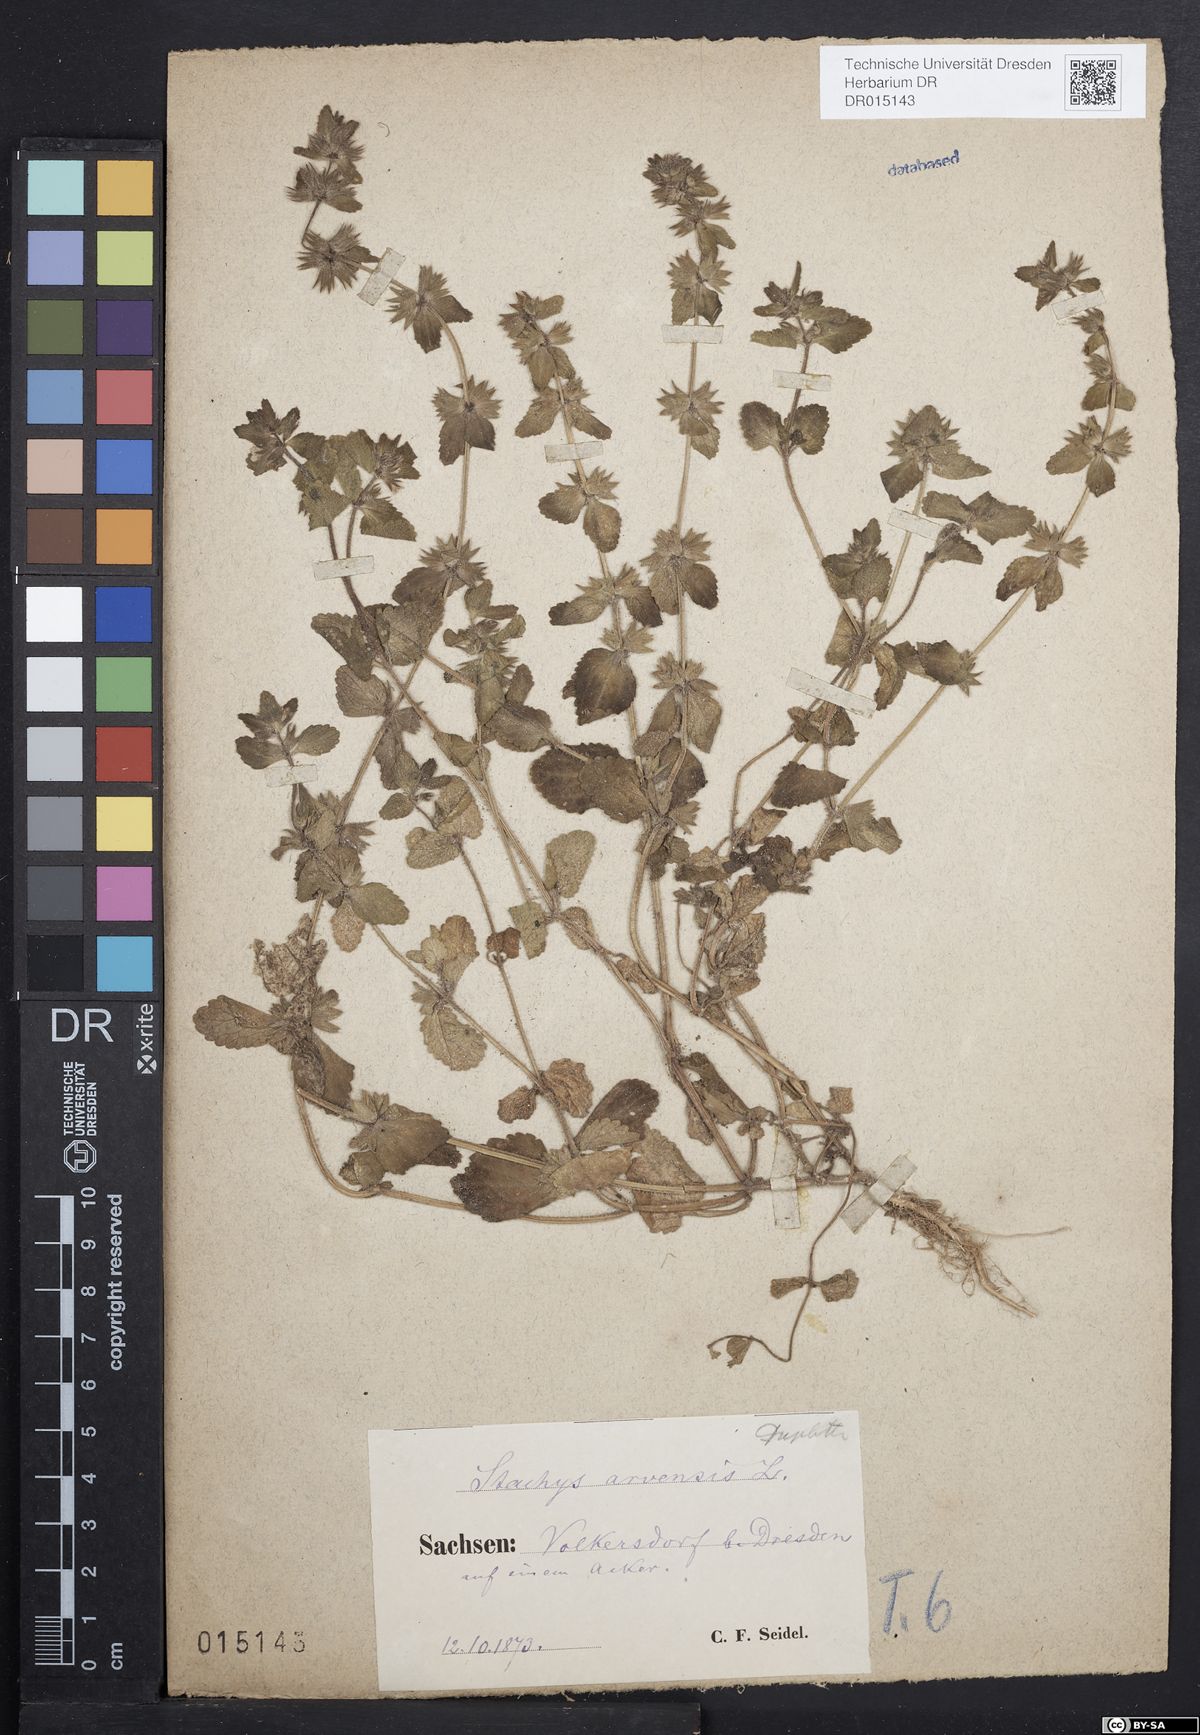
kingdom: Plantae
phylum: Tracheophyta
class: Magnoliopsida
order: Lamiales
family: Lamiaceae
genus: Stachys
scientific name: Stachys arvensis
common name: Field woundwort
